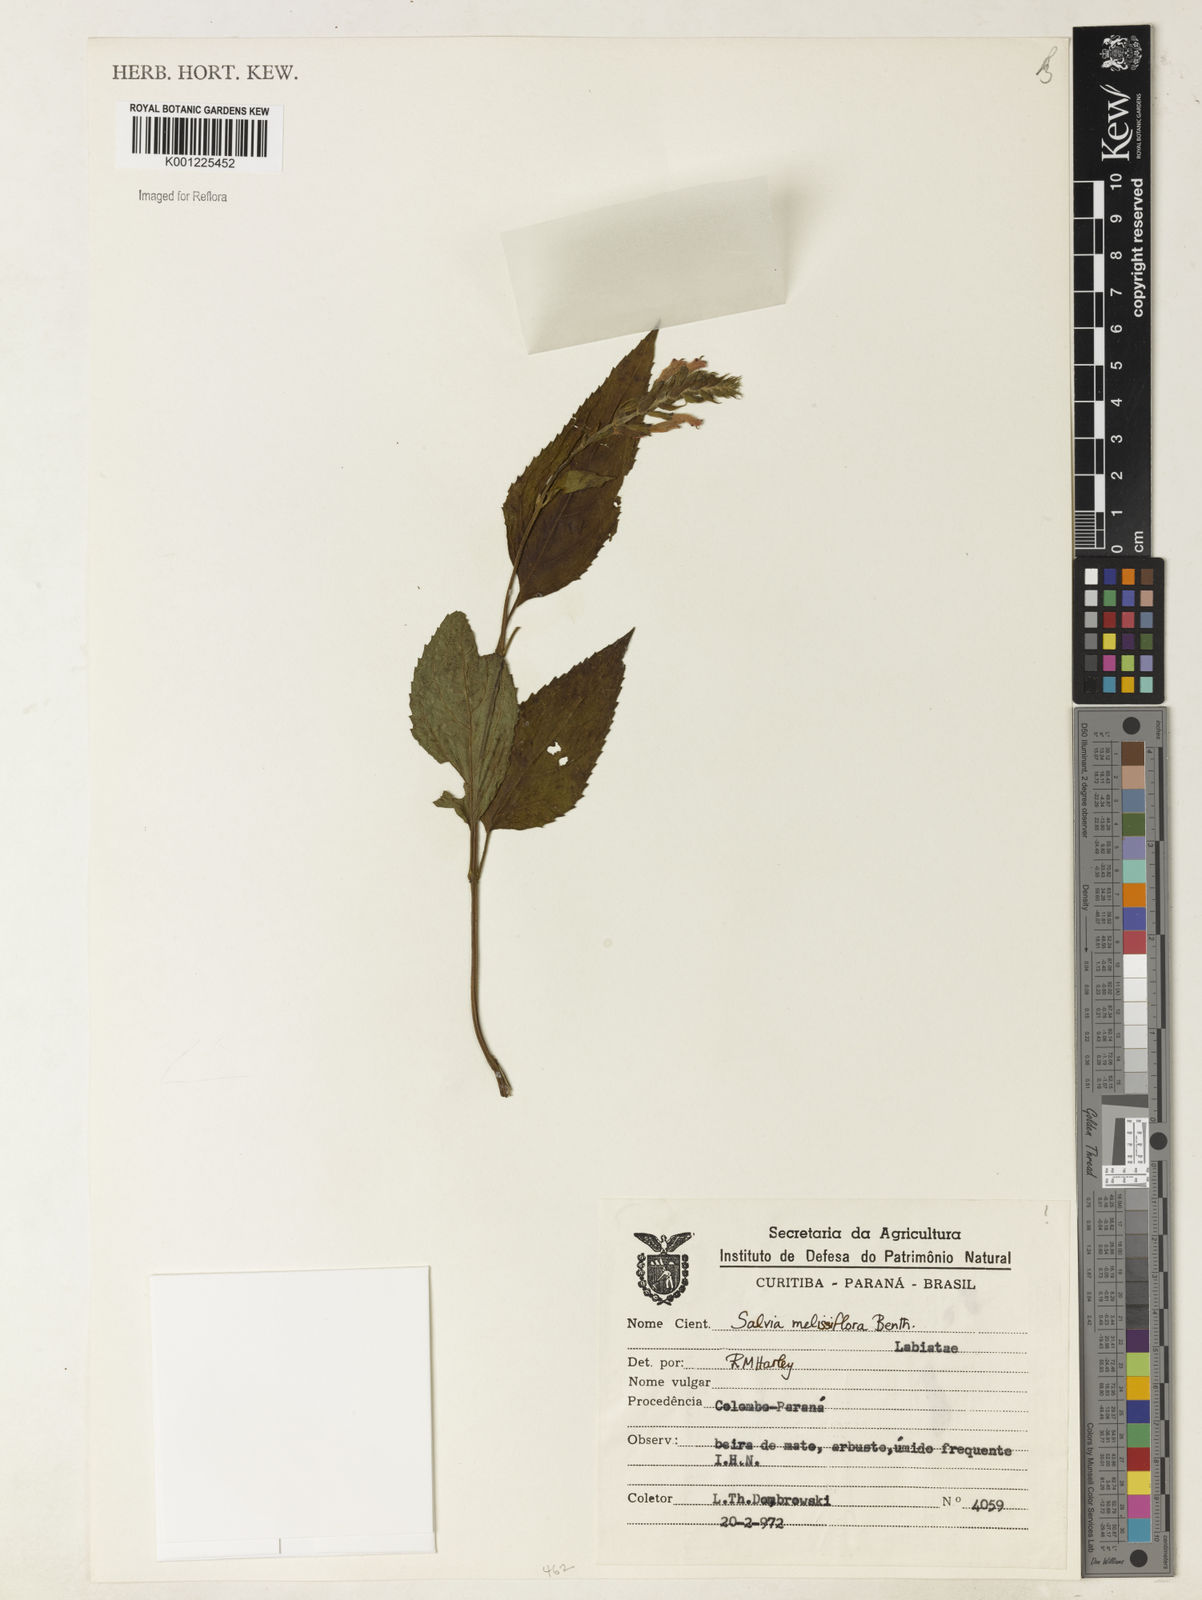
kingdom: Plantae
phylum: Tracheophyta
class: Magnoliopsida
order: Lamiales
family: Lamiaceae
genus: Salvia
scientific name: Salvia melissiflora
